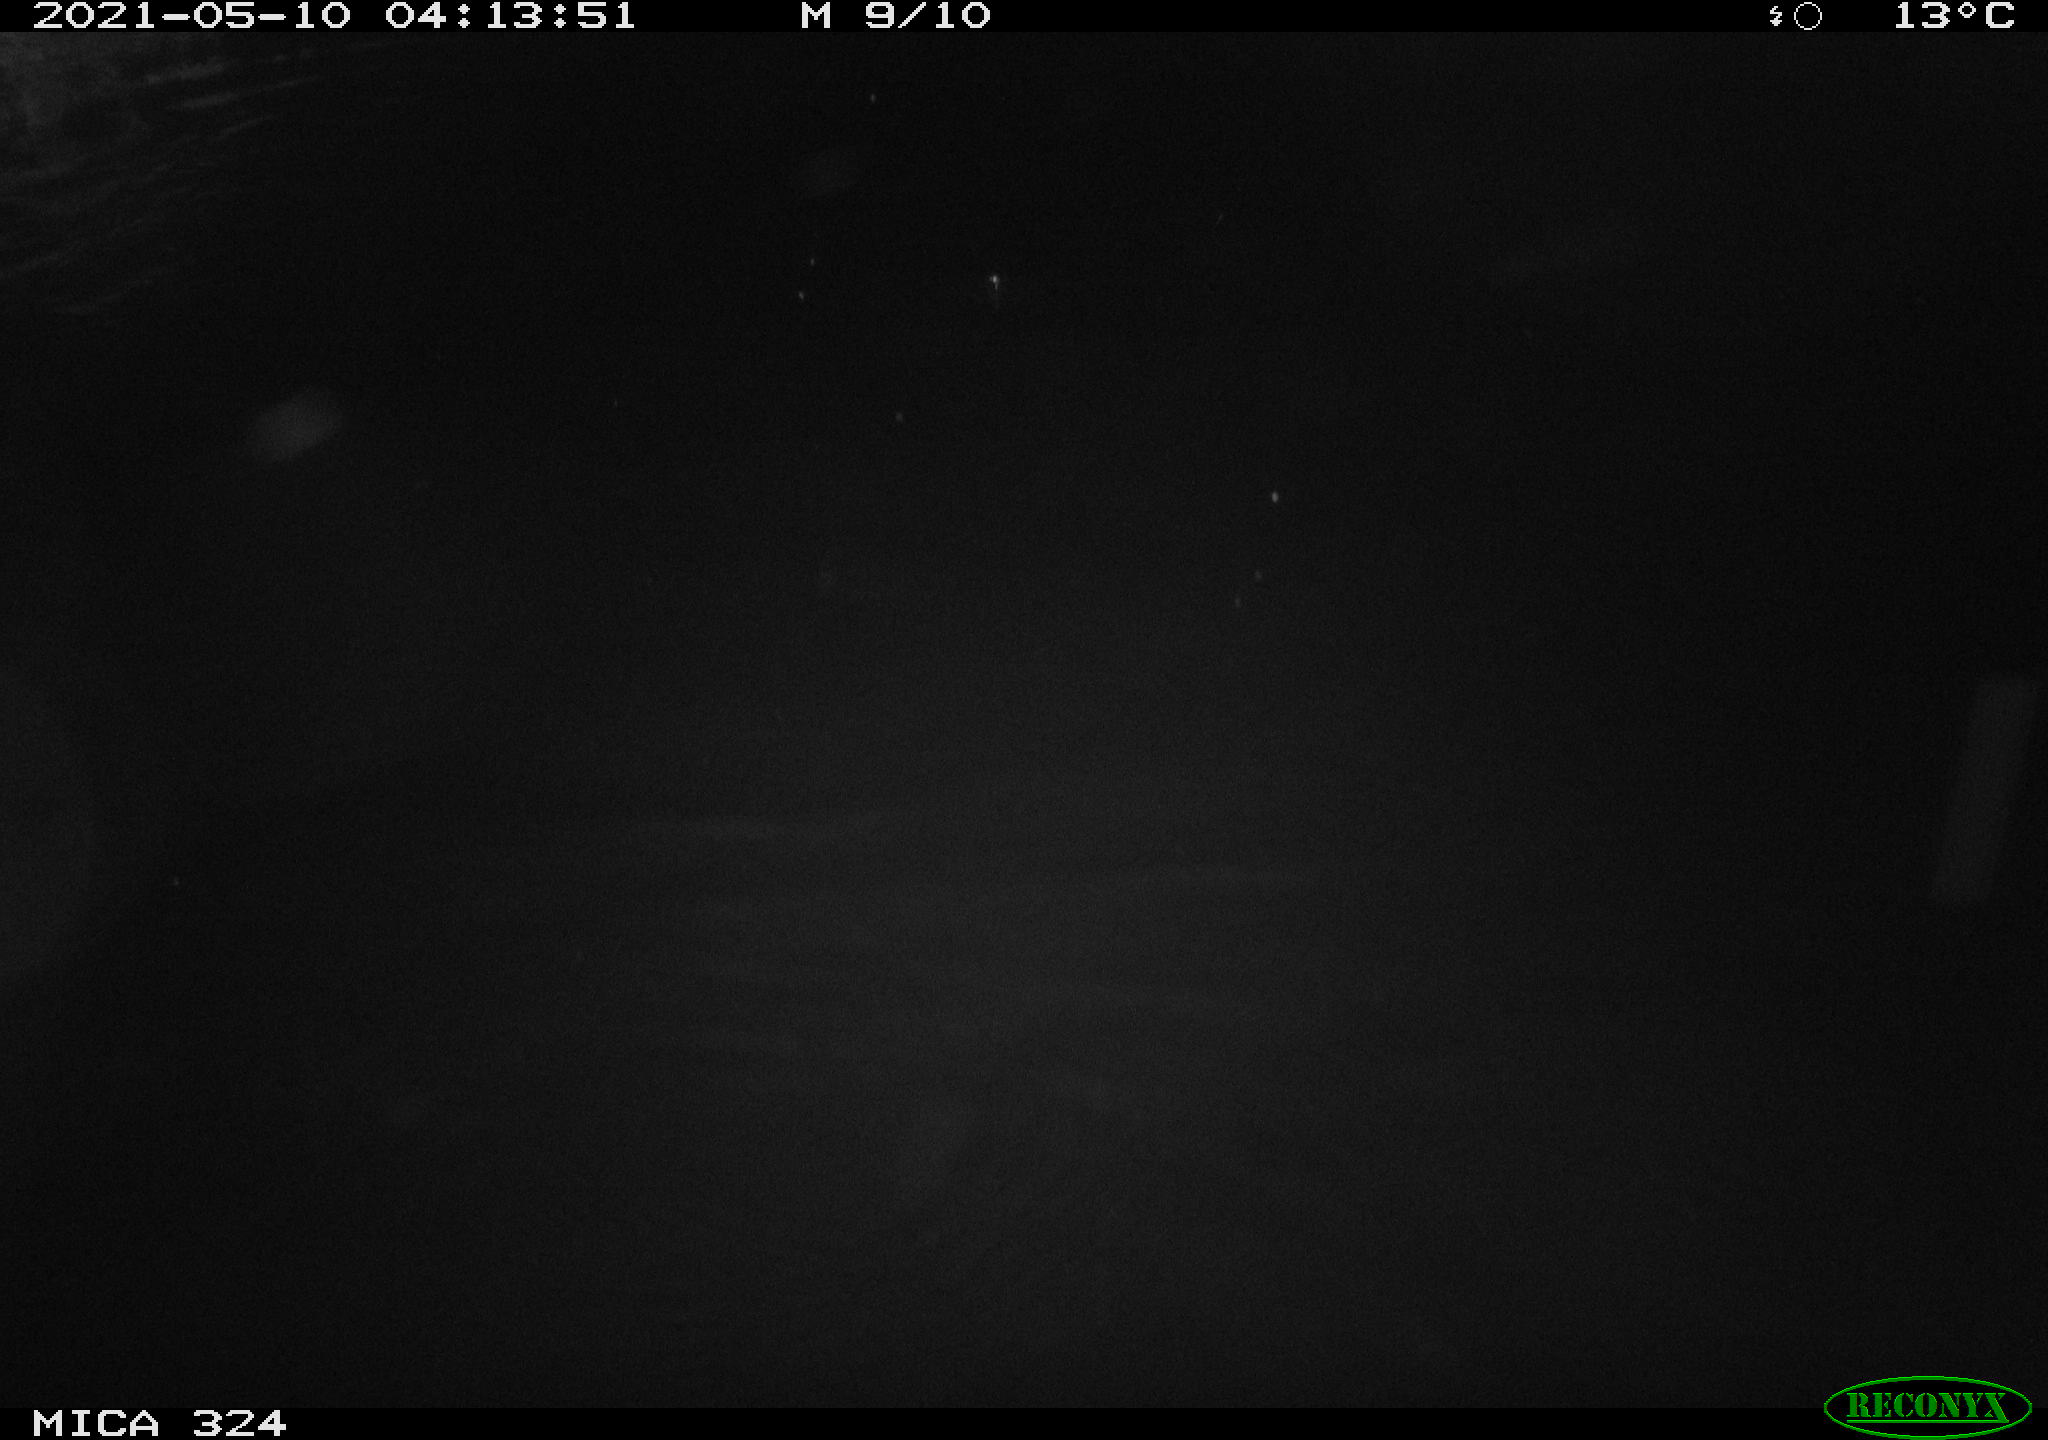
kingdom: Animalia
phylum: Chordata
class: Aves
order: Anseriformes
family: Anatidae
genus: Anas
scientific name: Anas platyrhynchos
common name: Mallard
